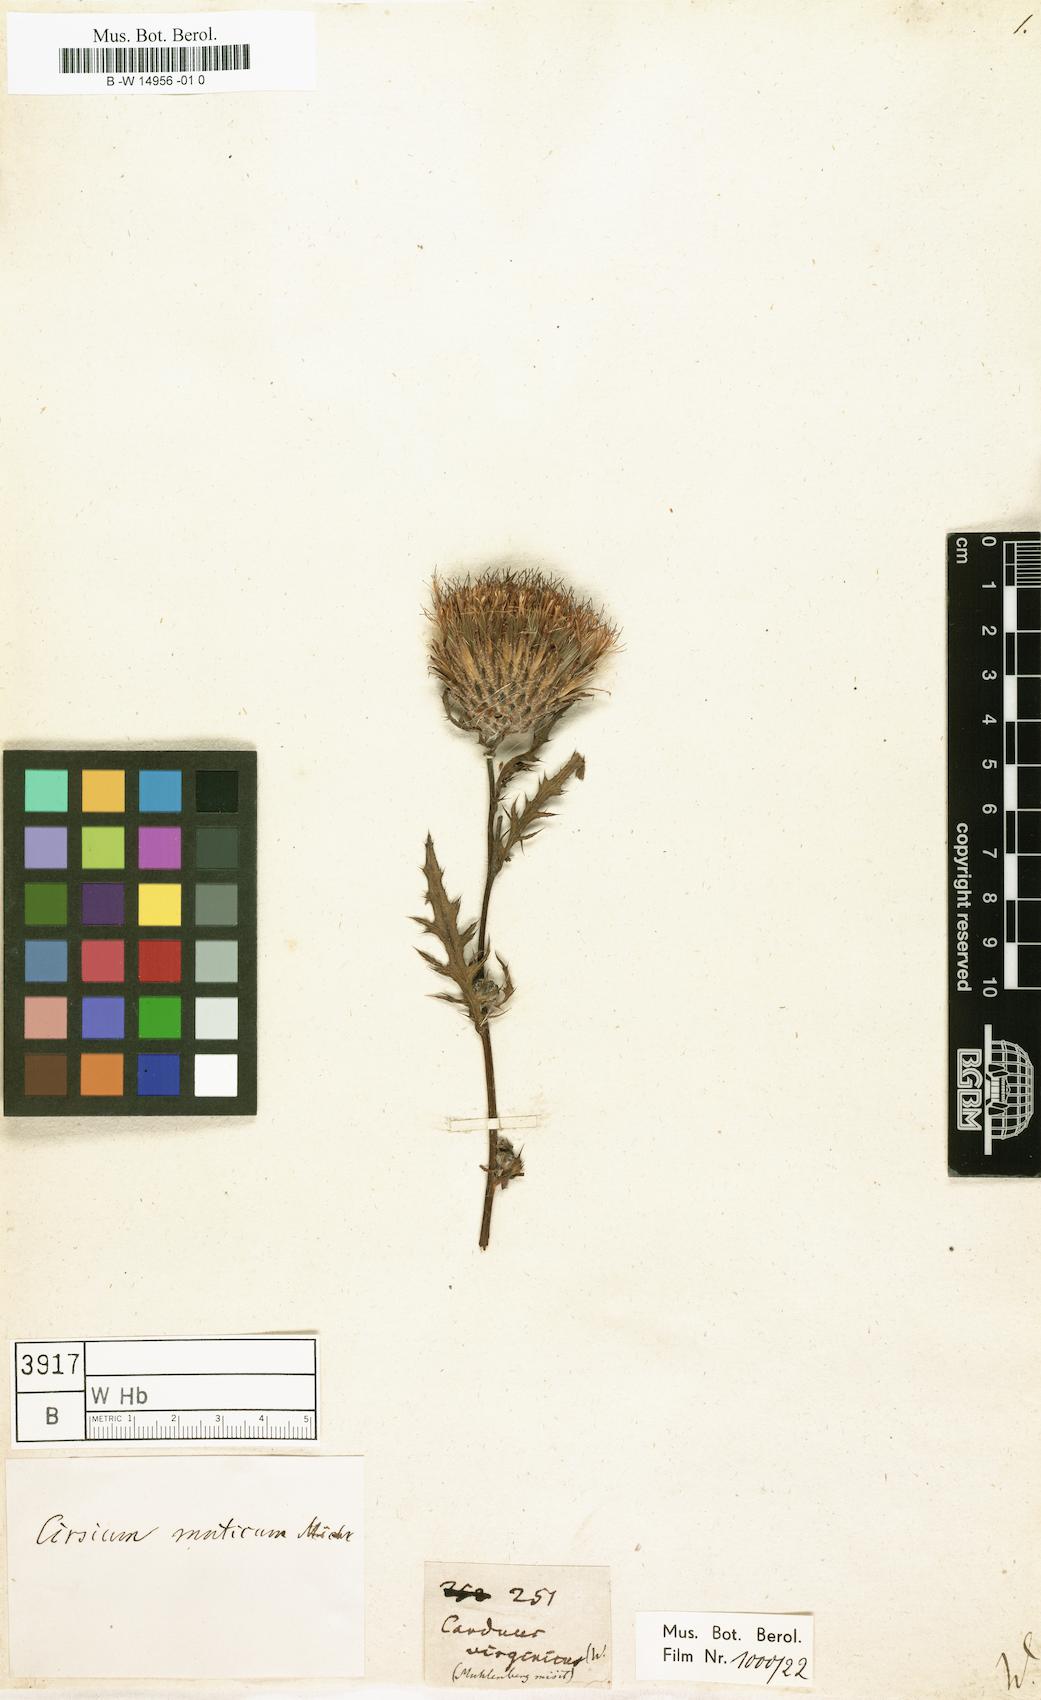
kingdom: Plantae
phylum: Tracheophyta
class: Magnoliopsida
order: Asterales
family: Asteraceae
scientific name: Asteraceae
